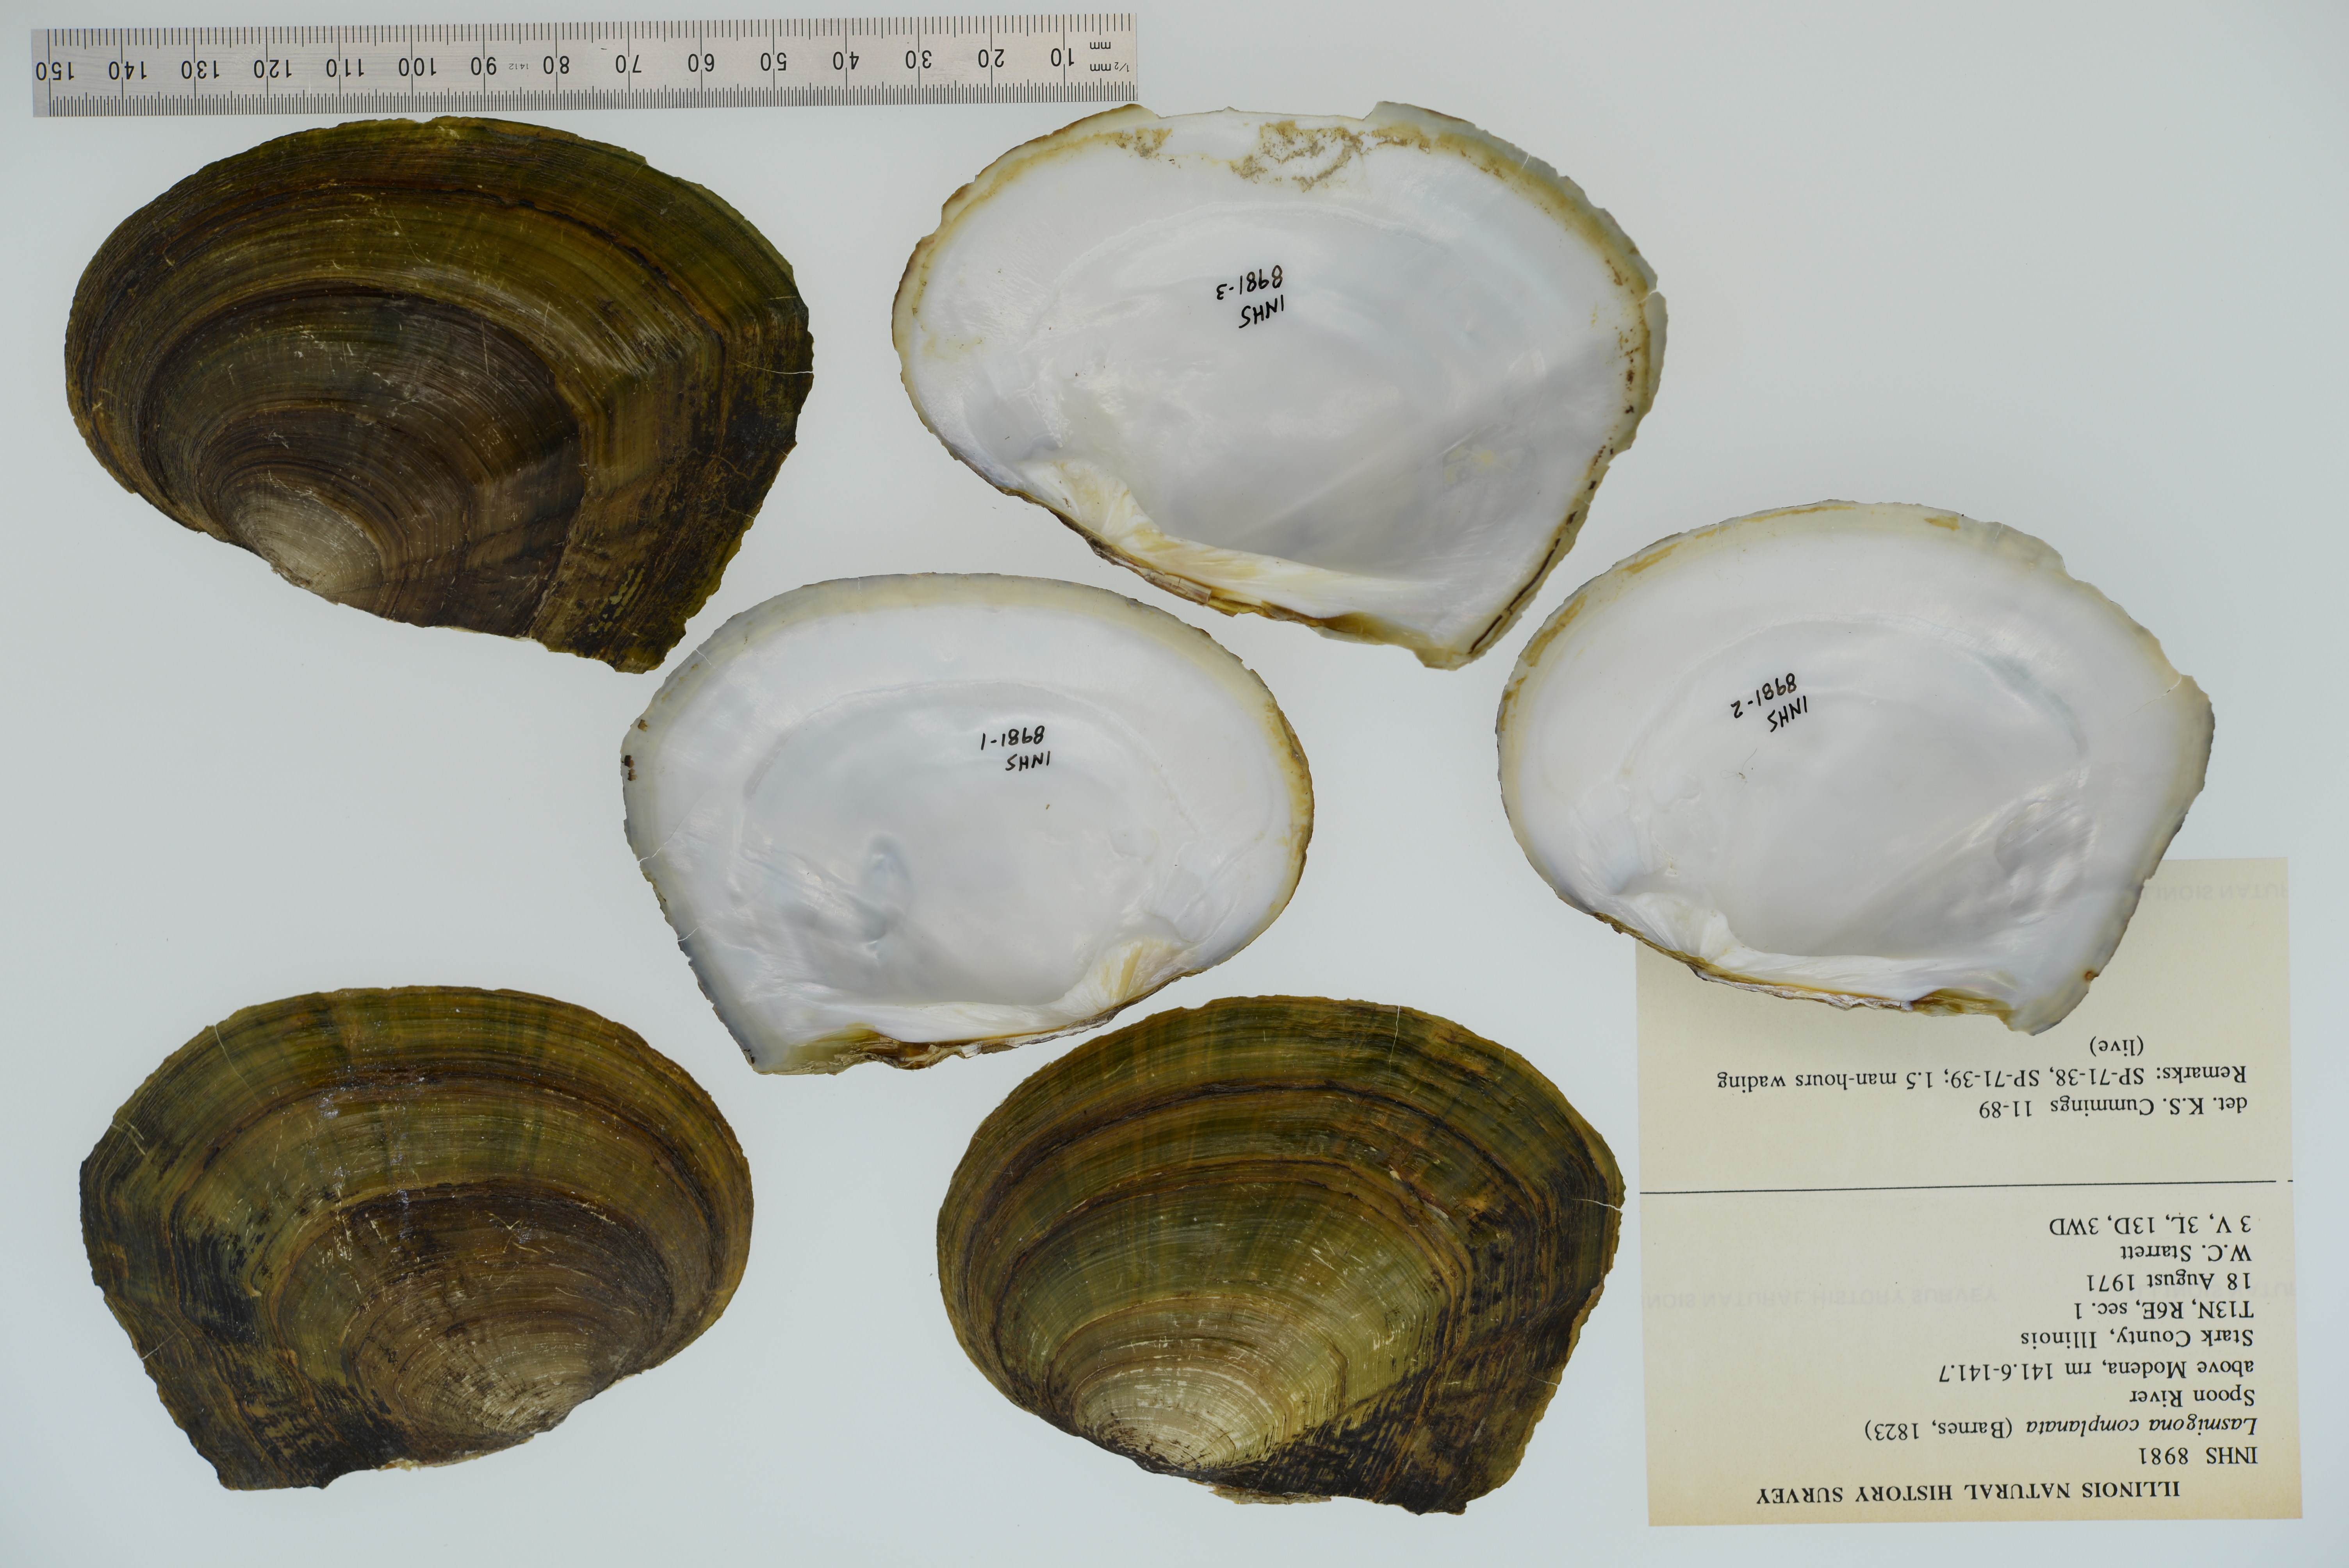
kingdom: Animalia
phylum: Mollusca
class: Bivalvia
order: Unionida
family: Unionidae
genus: Lasmigona
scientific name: Lasmigona complanata
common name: White heelsplitter
